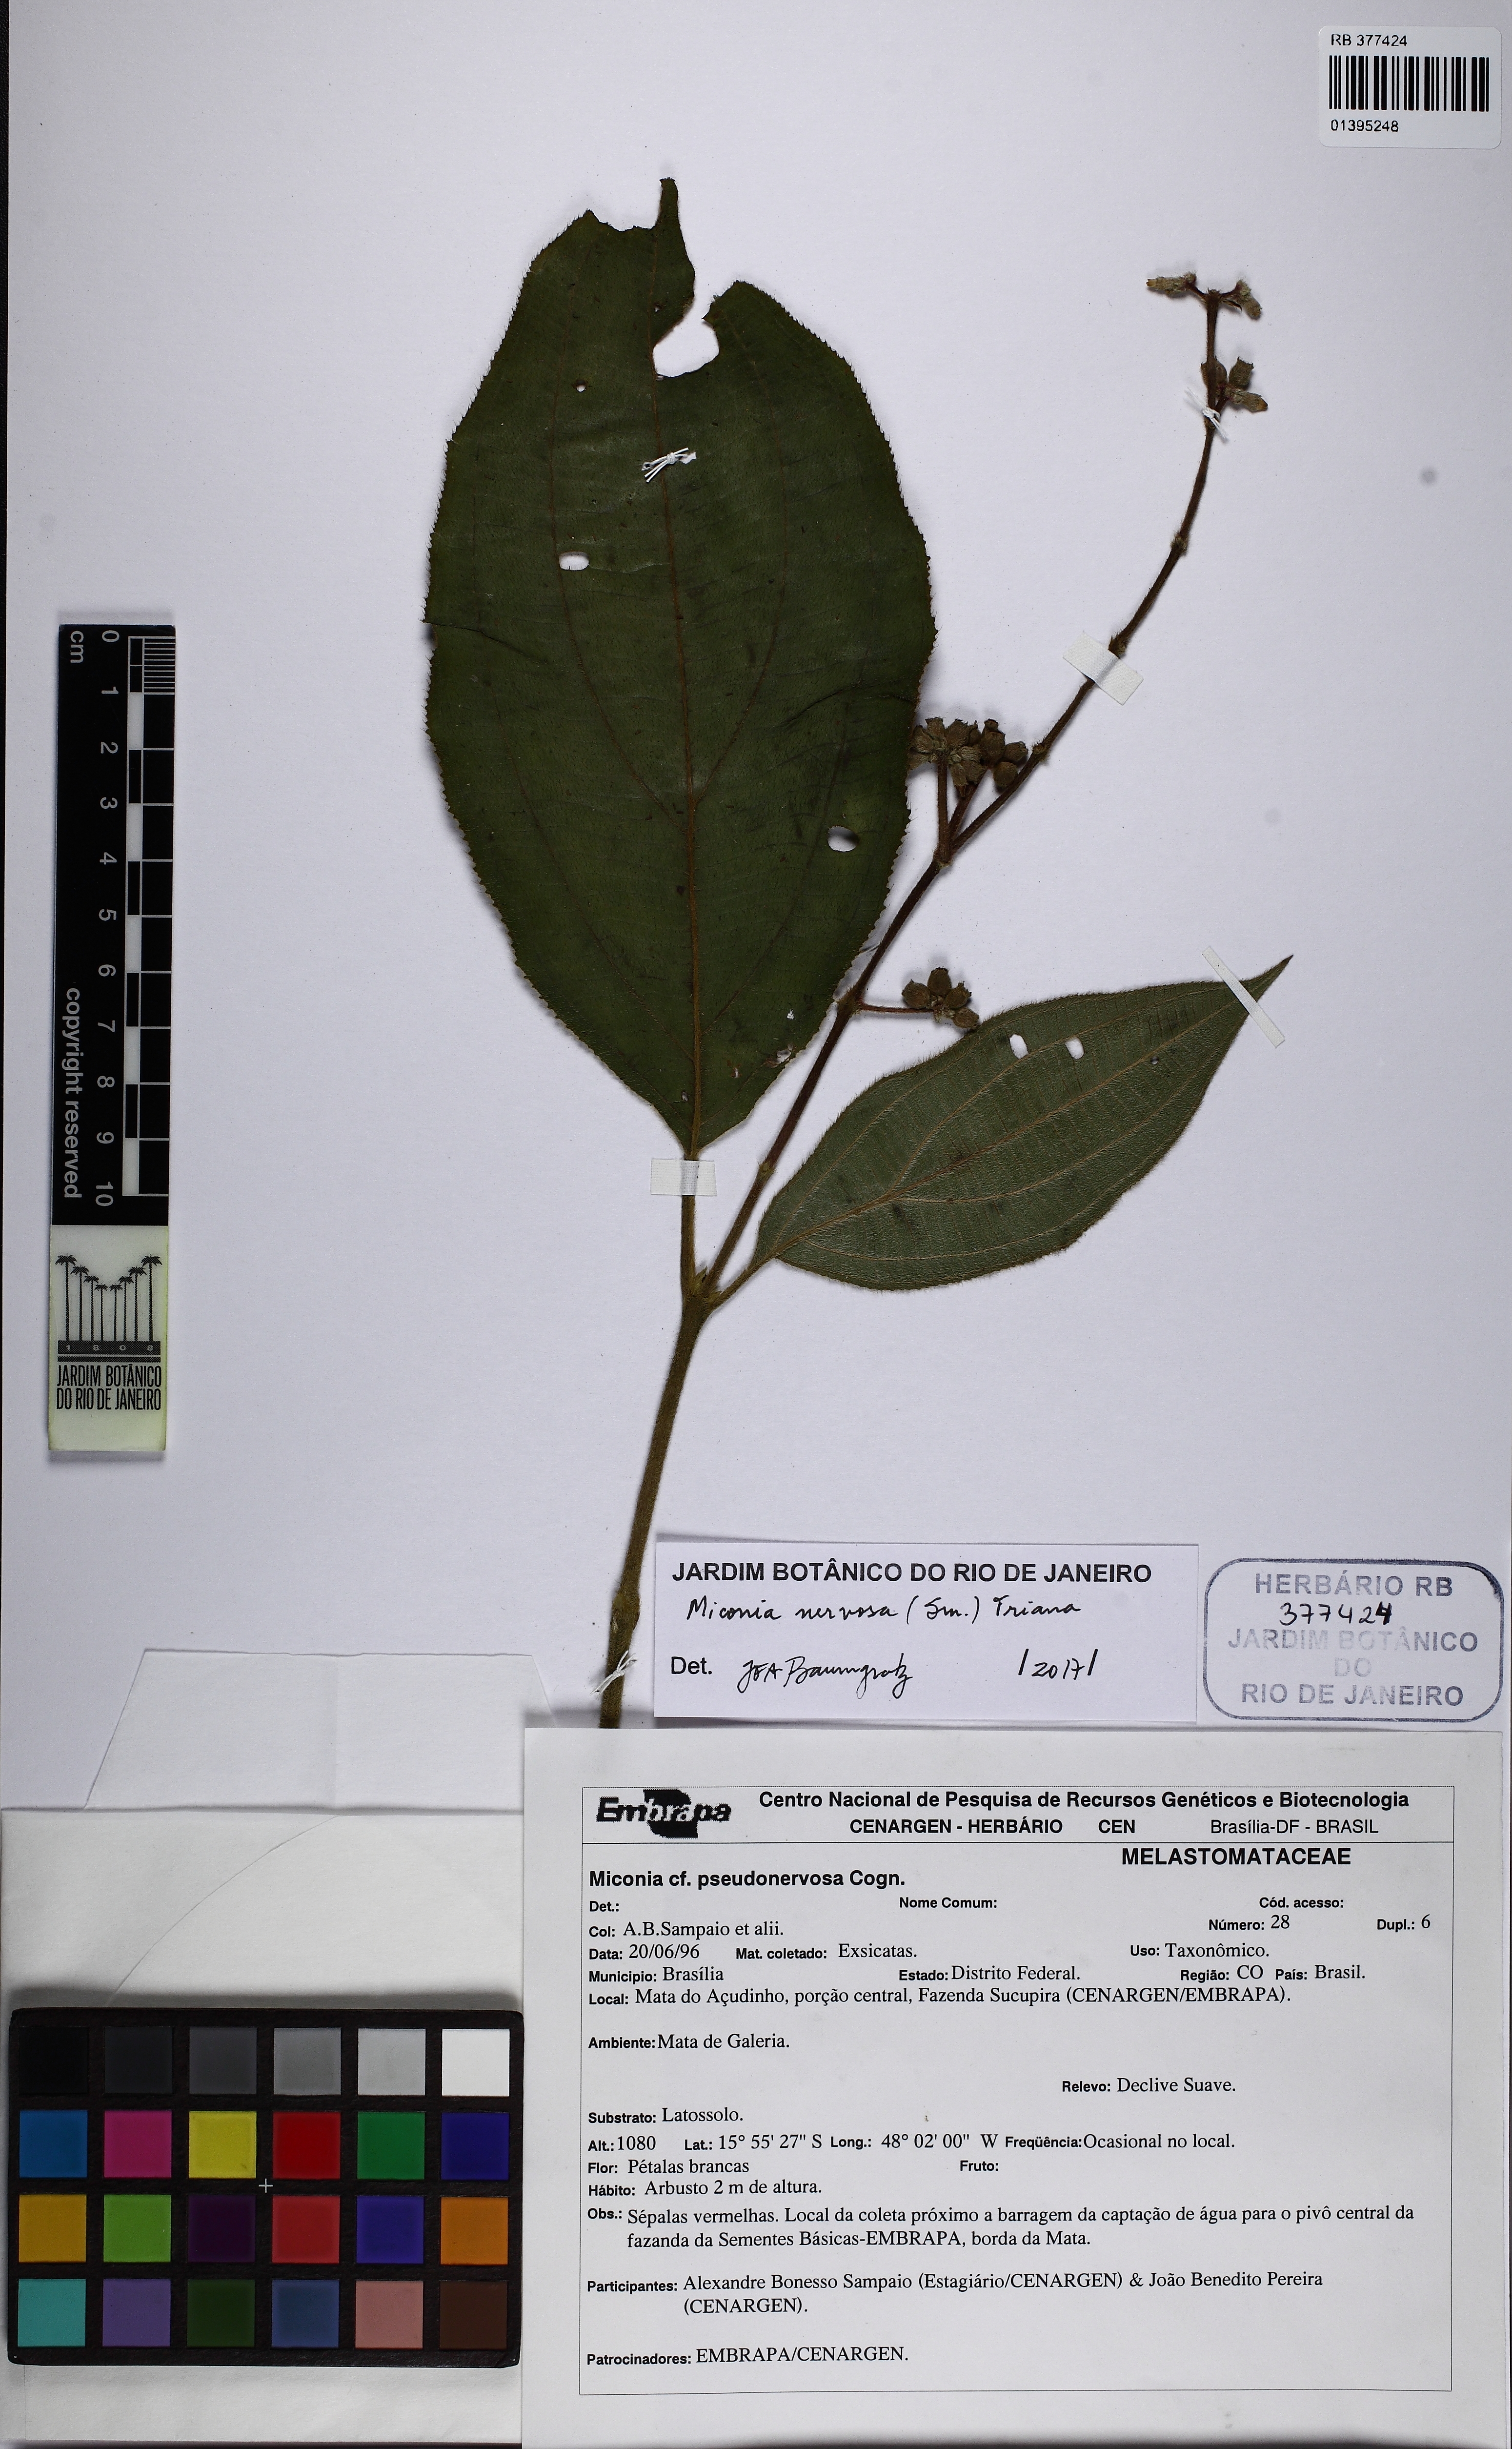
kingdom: Plantae
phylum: Tracheophyta
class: Magnoliopsida
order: Myrtales
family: Melastomataceae
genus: Miconia
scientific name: Miconia nervosa
